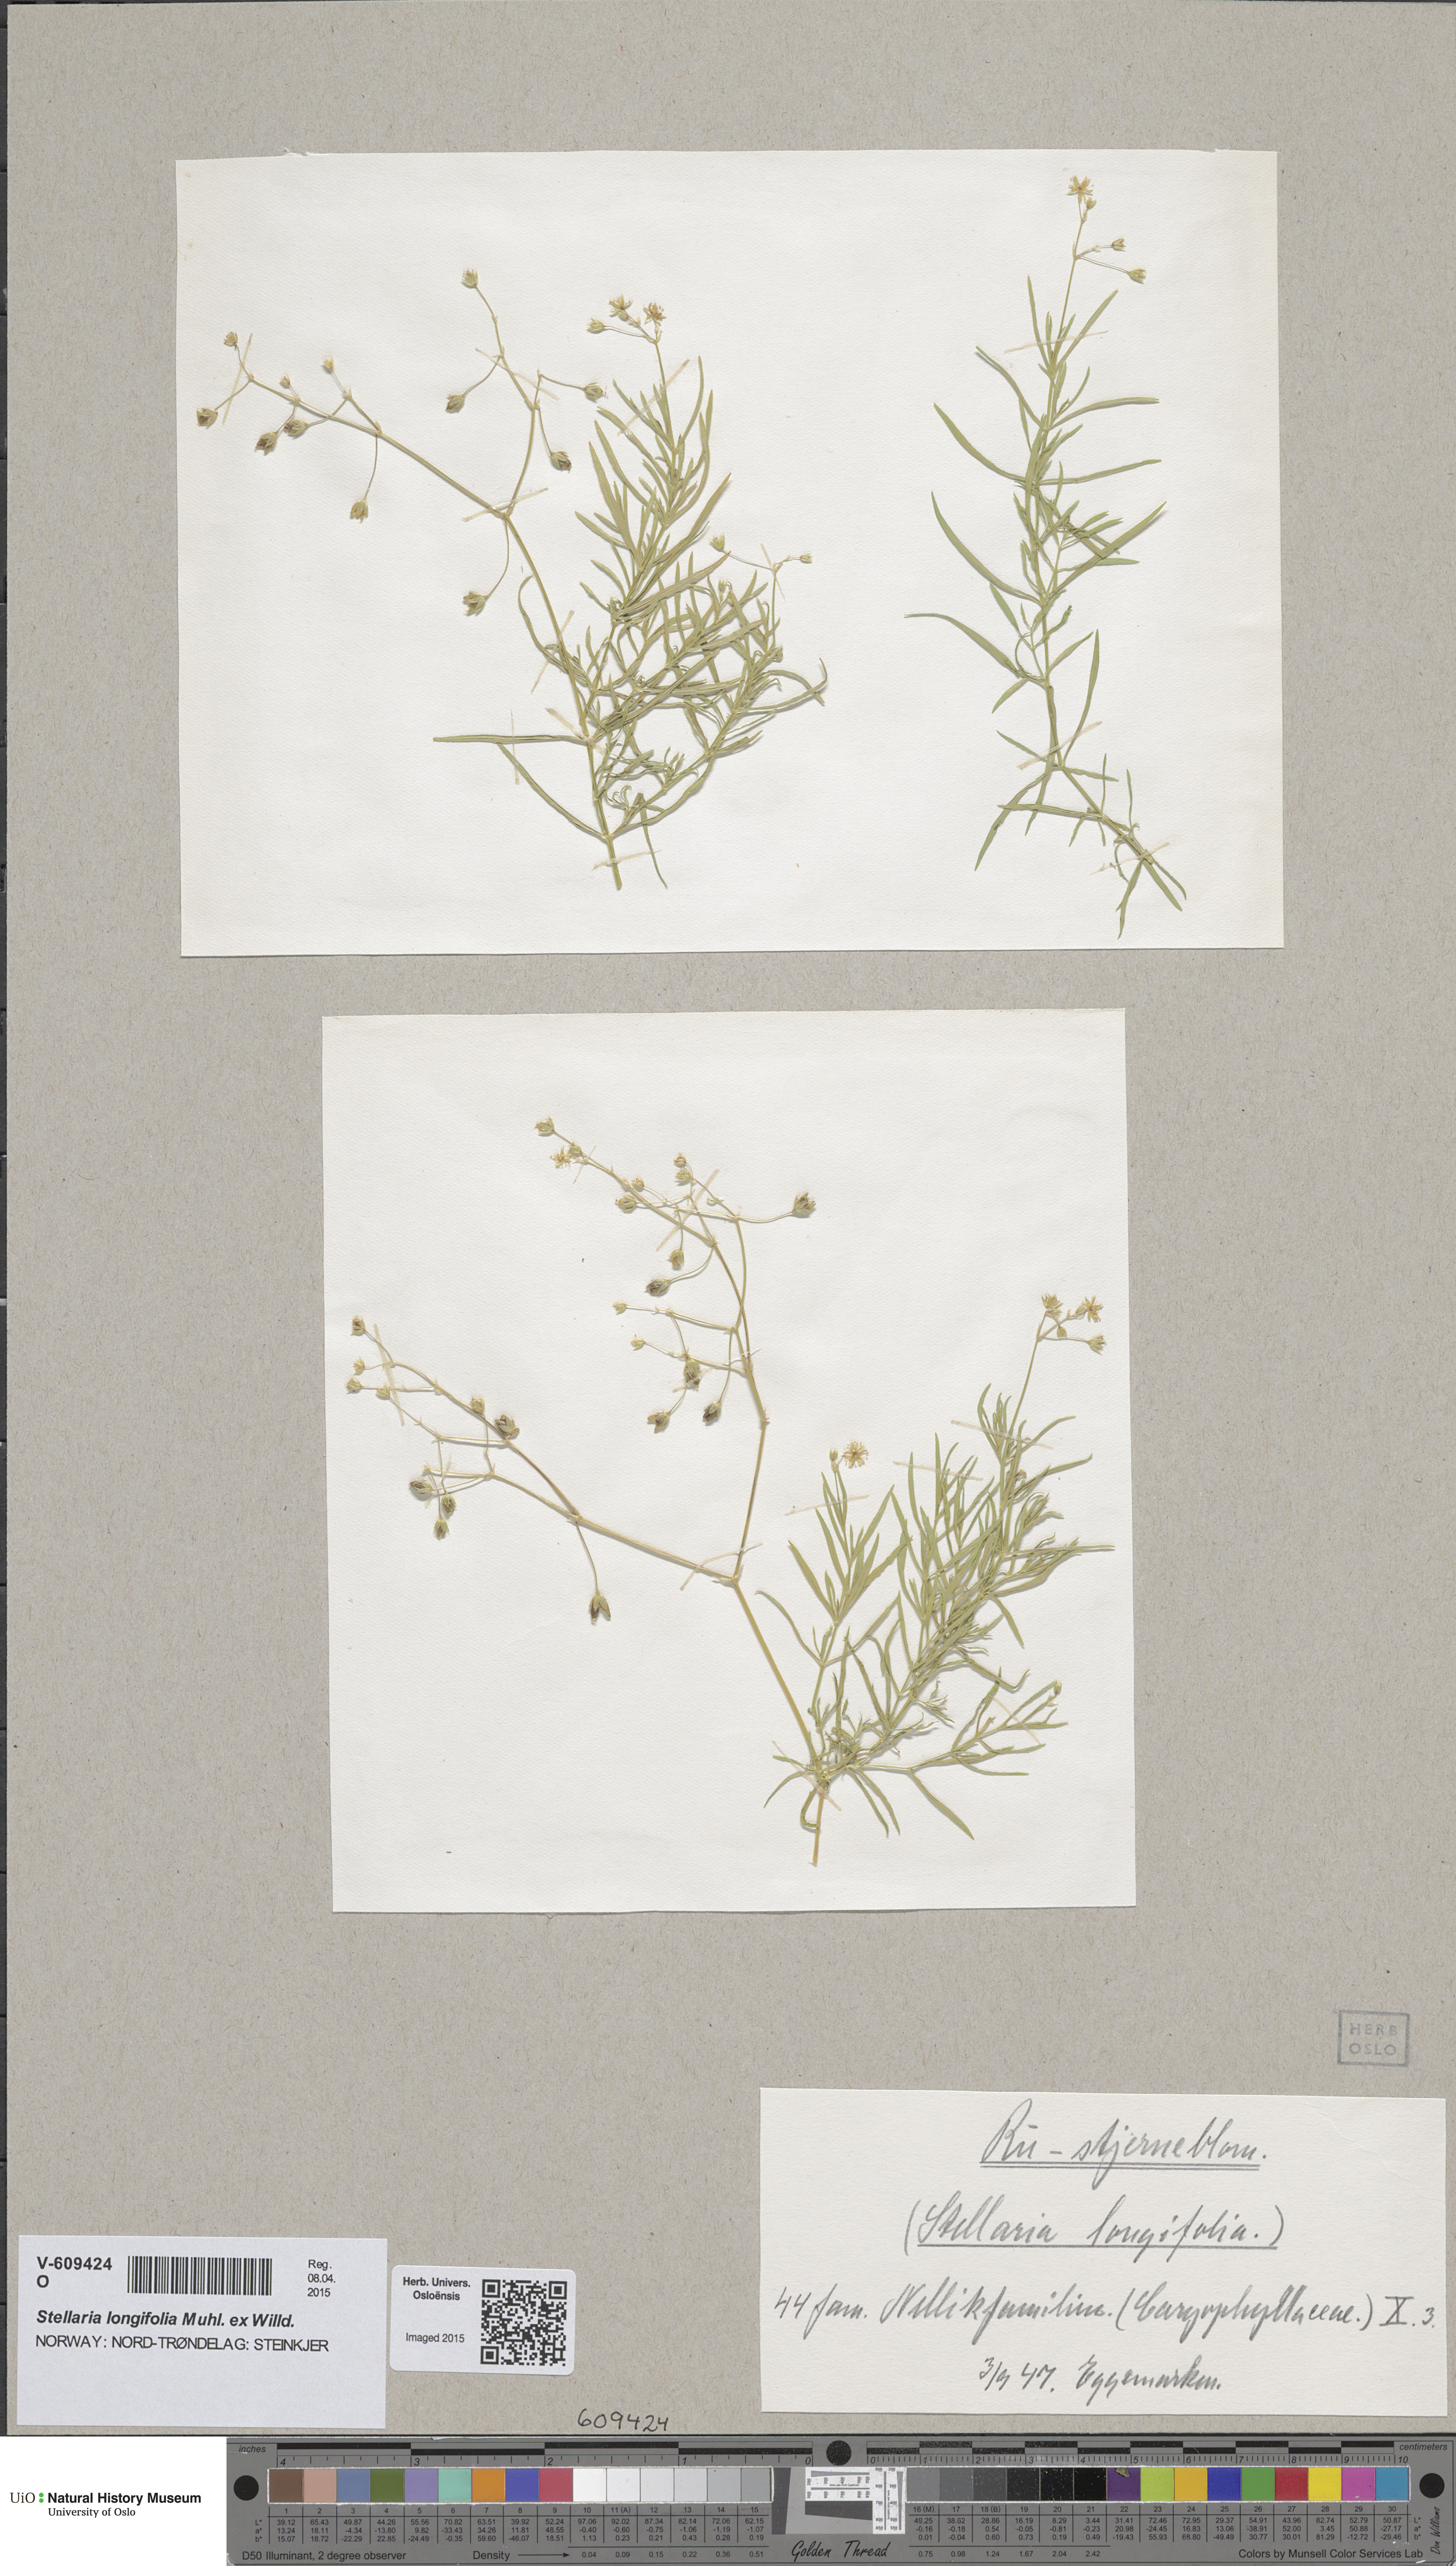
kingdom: Plantae
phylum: Tracheophyta
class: Magnoliopsida
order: Caryophyllales
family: Caryophyllaceae
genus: Stellaria
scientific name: Stellaria longifolia
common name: Long-leaved chickweed
